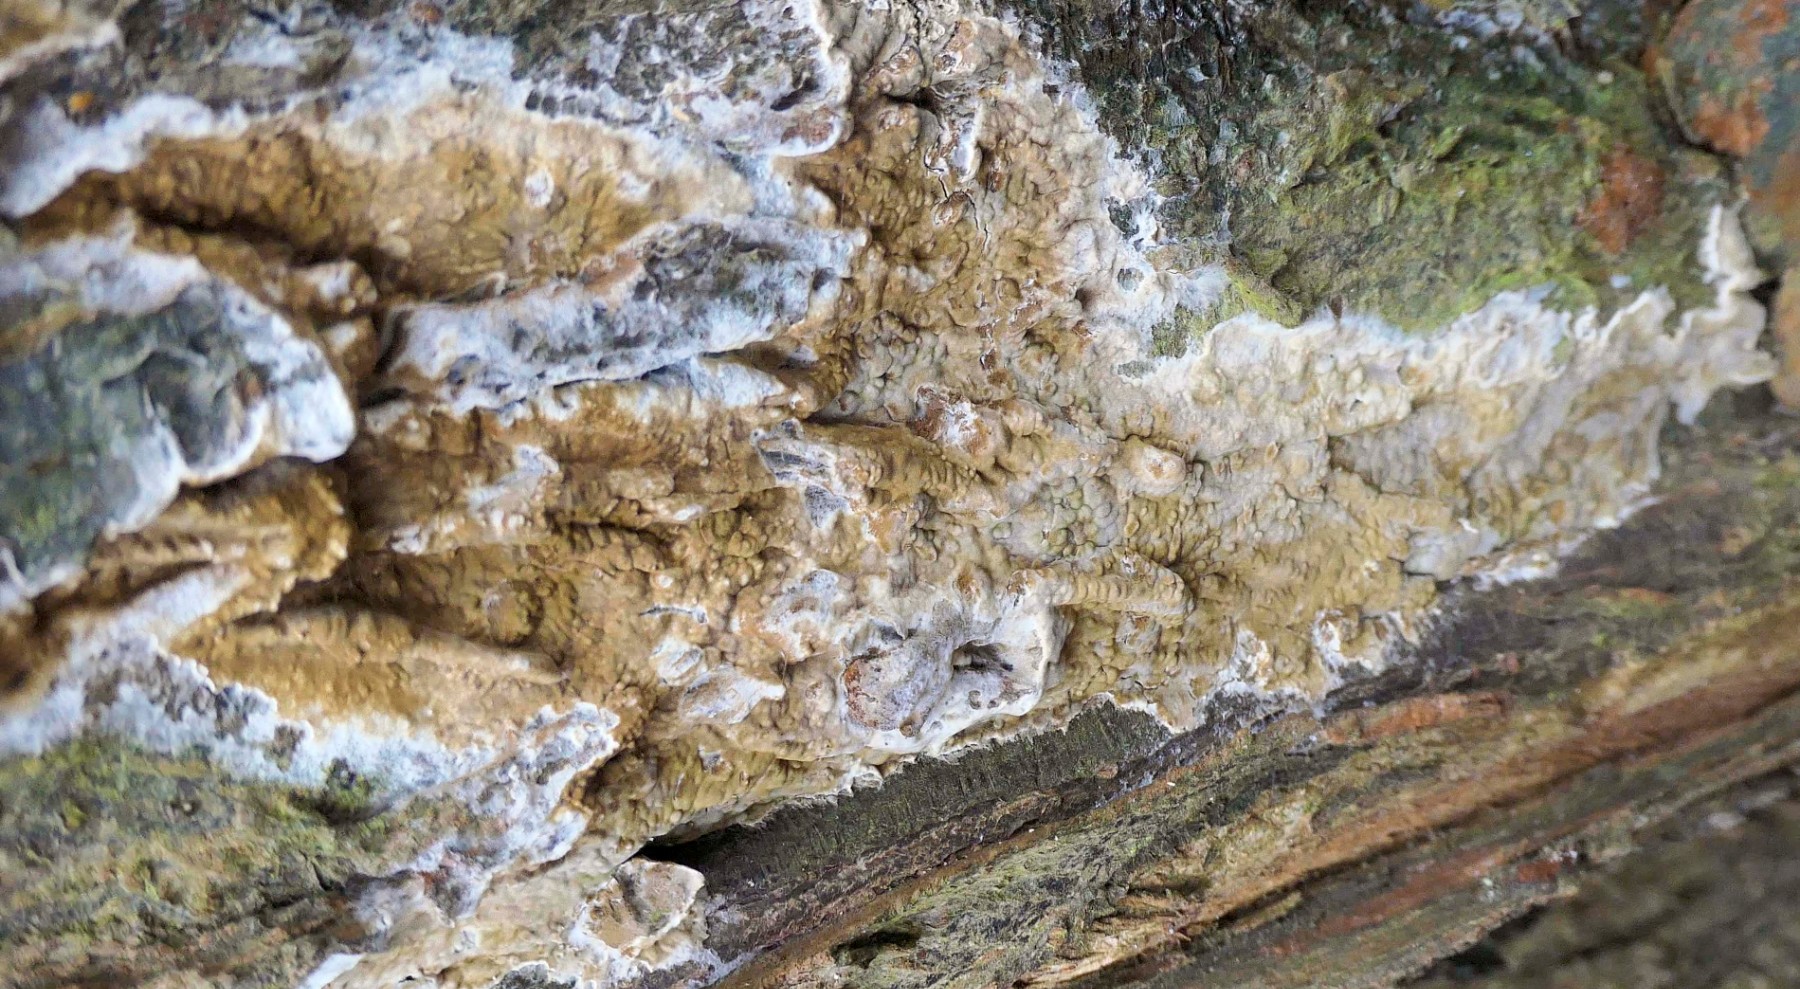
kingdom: Fungi
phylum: Basidiomycota
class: Agaricomycetes
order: Boletales
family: Coniophoraceae
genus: Coniophora
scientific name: Coniophora puteana
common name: gul tømmersvamp
